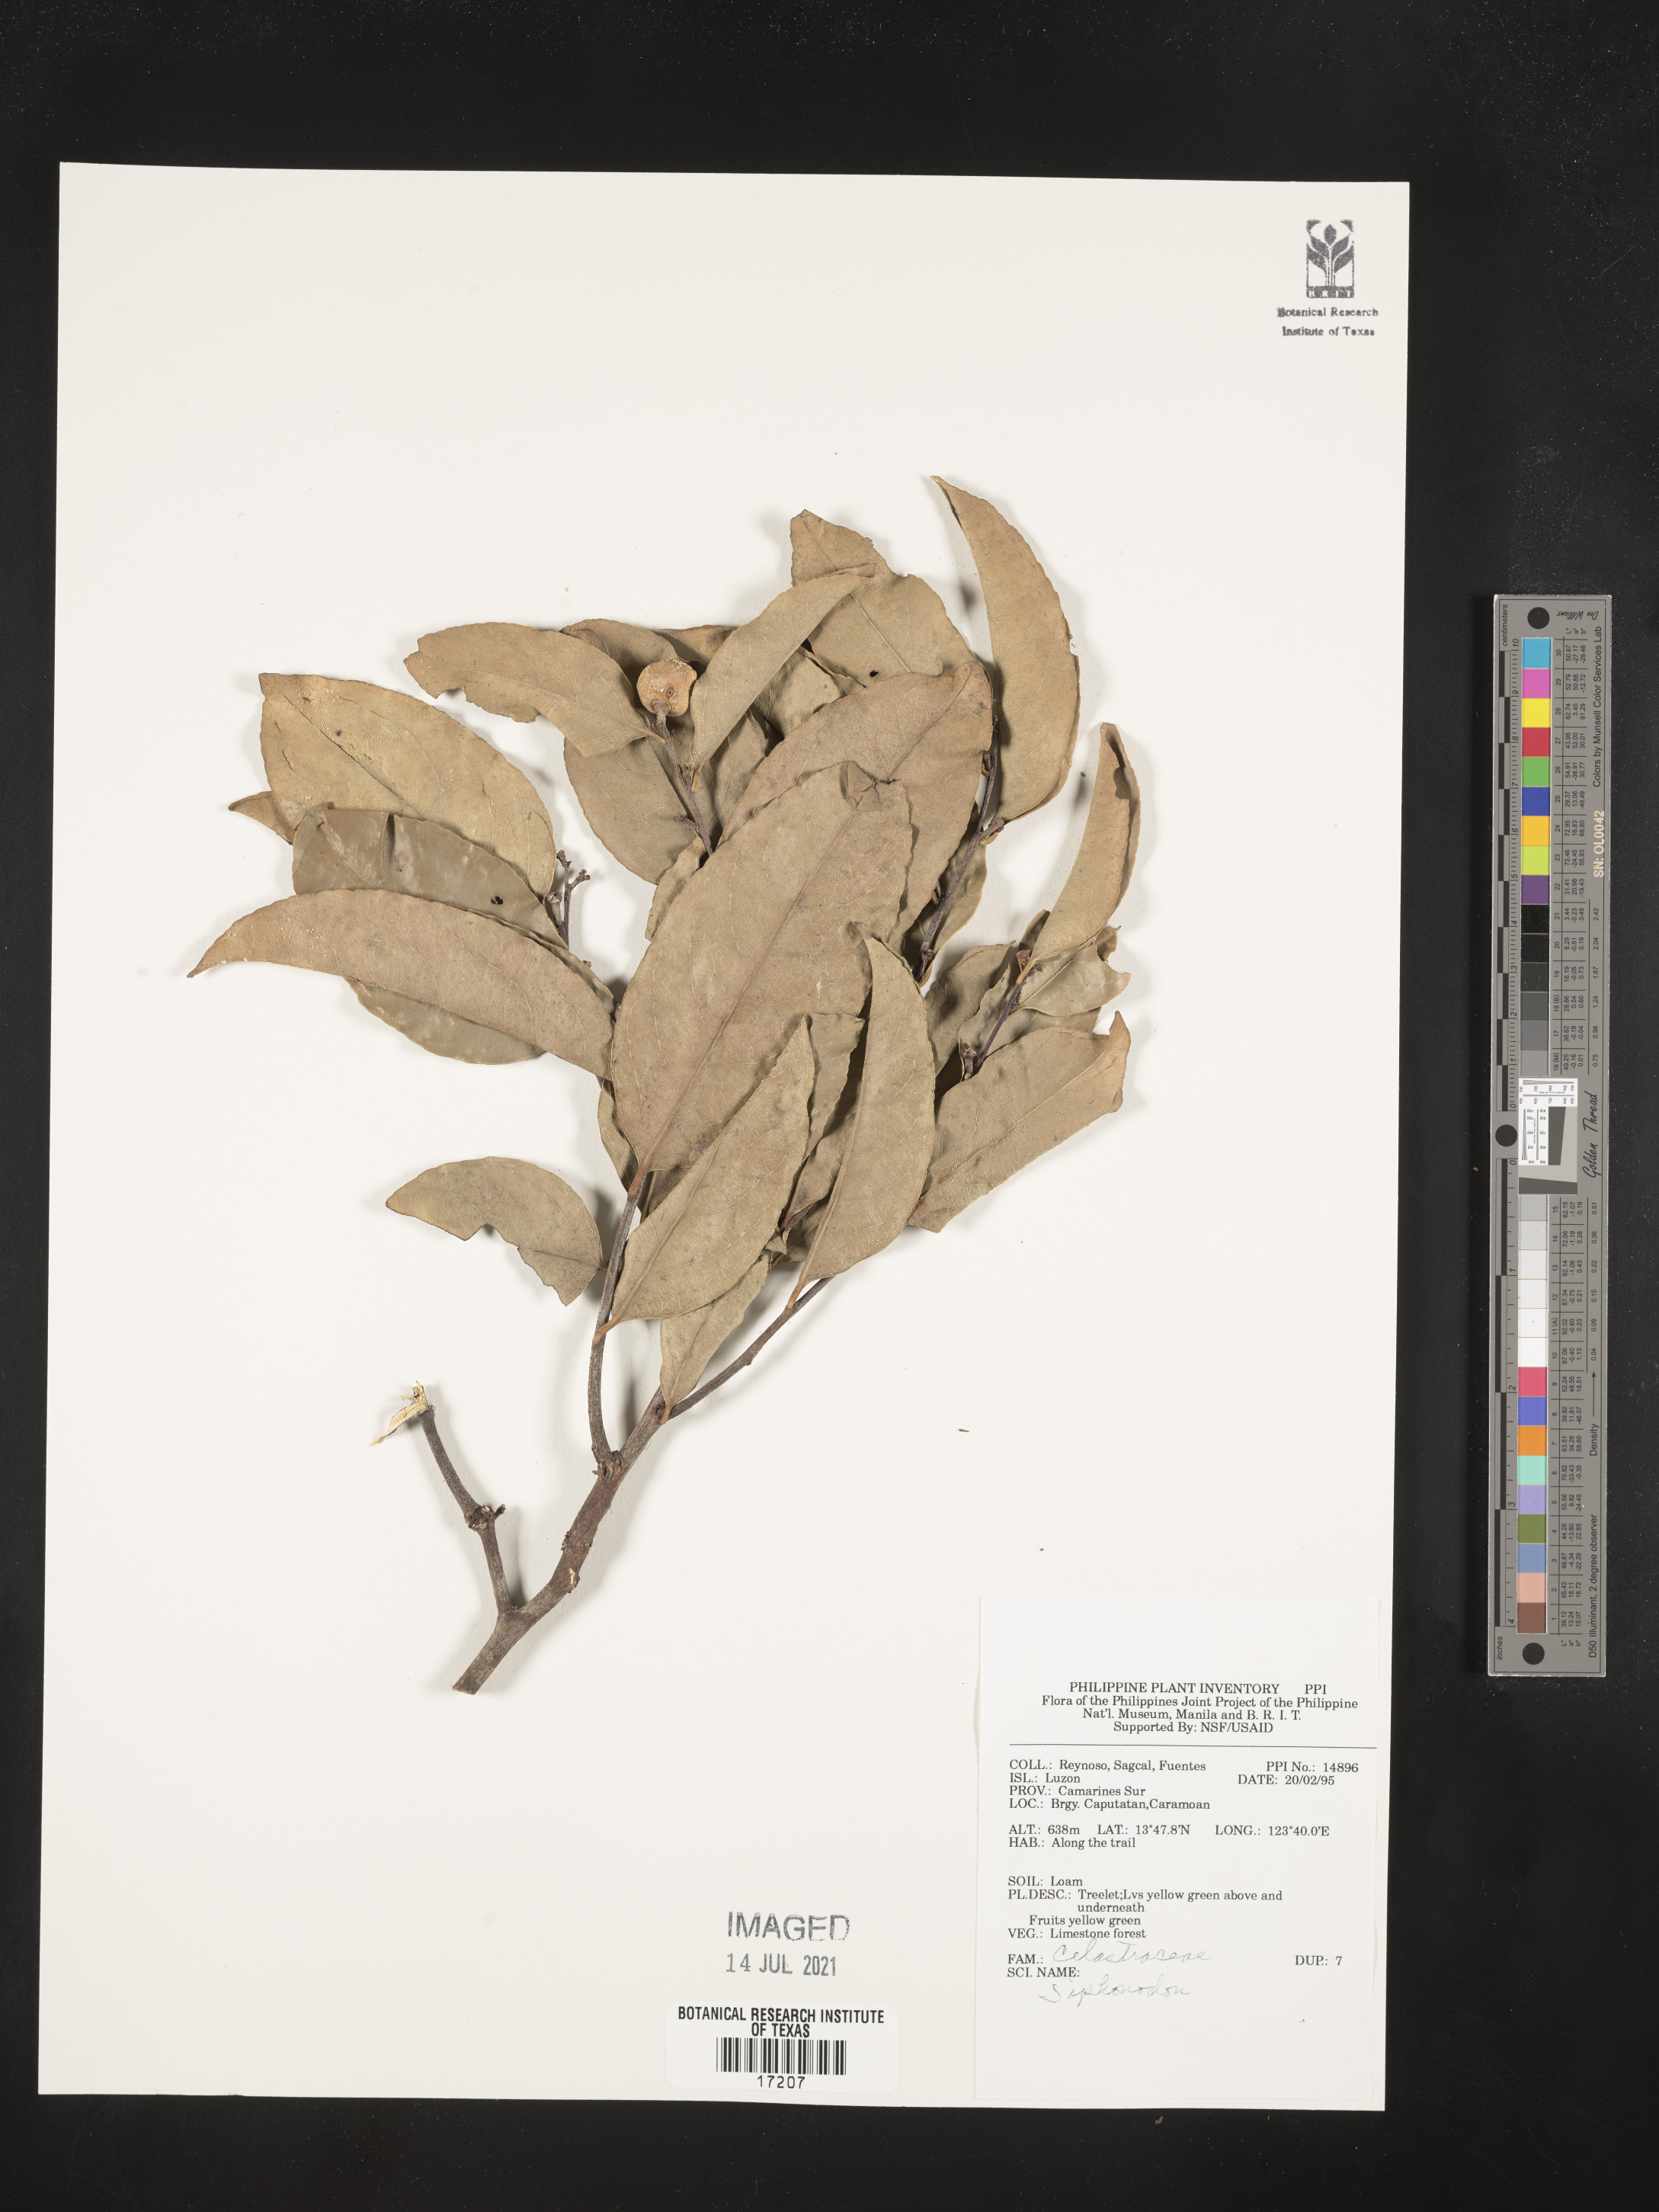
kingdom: Plantae
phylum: Tracheophyta
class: Magnoliopsida
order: Celastrales
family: Celastraceae
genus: Siphonodon
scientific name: Siphonodon
